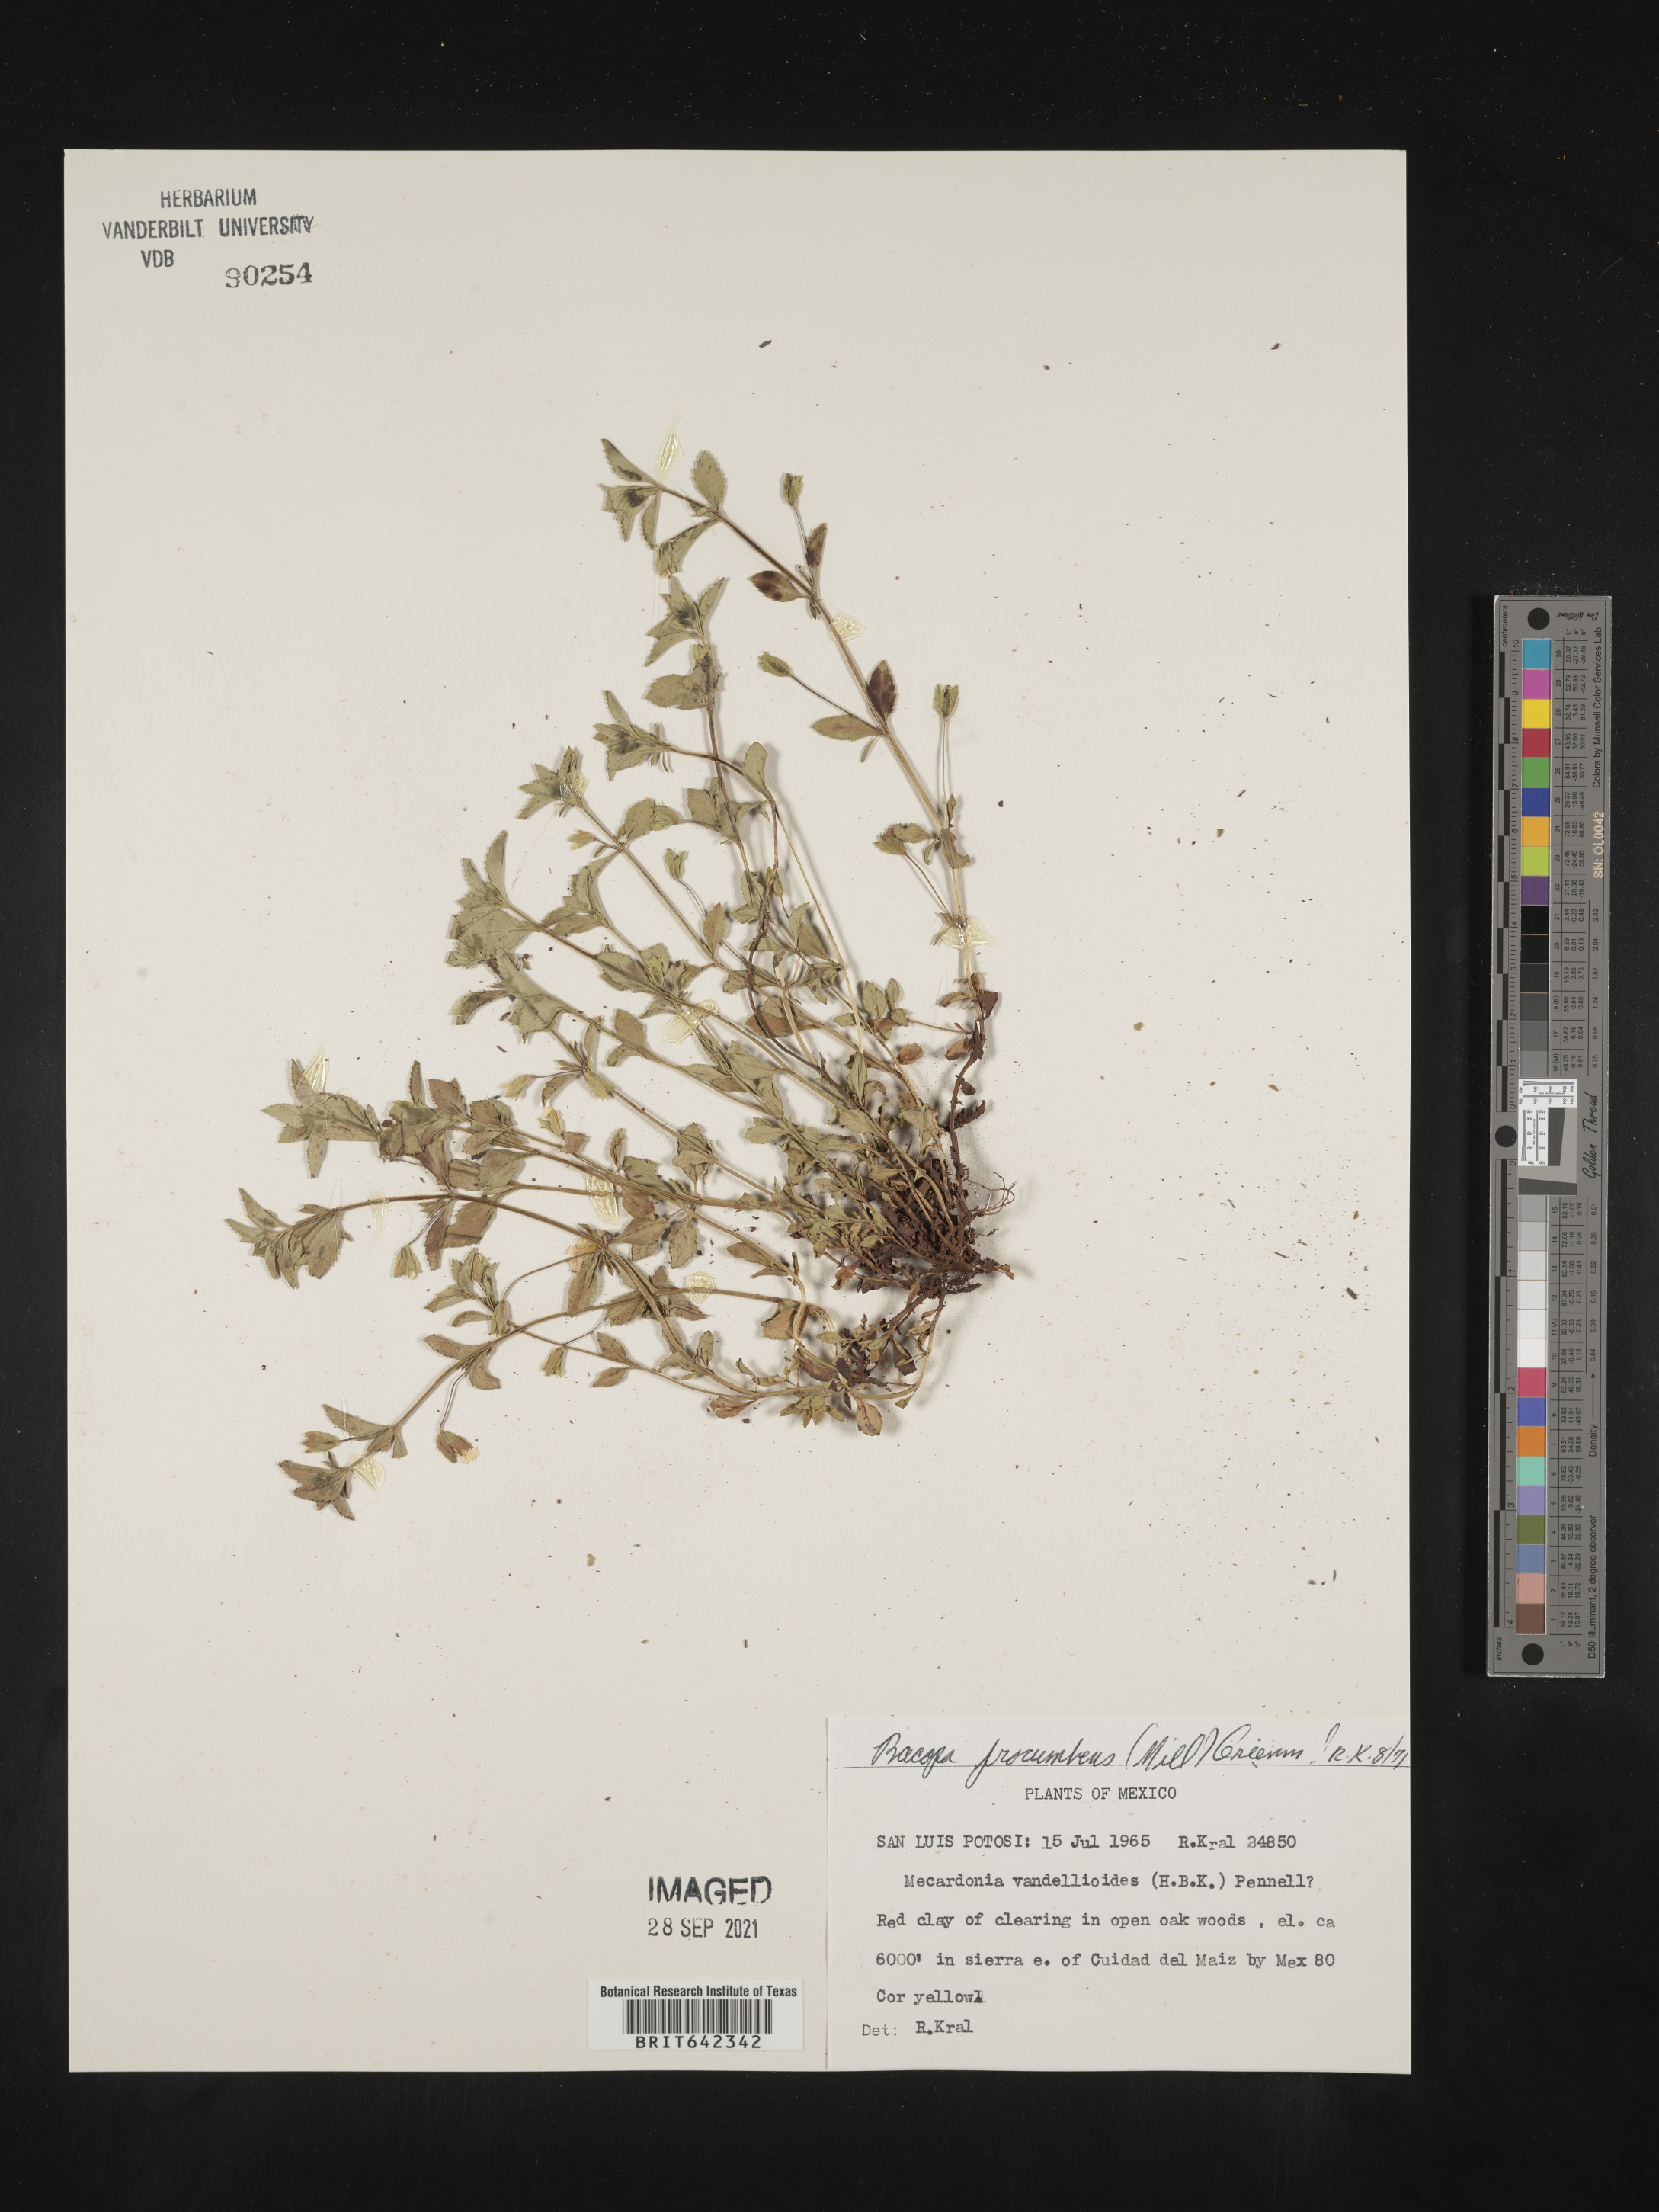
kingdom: Plantae
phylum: Tracheophyta
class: Magnoliopsida
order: Lamiales
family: Plantaginaceae
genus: Bacopa
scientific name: Bacopa
